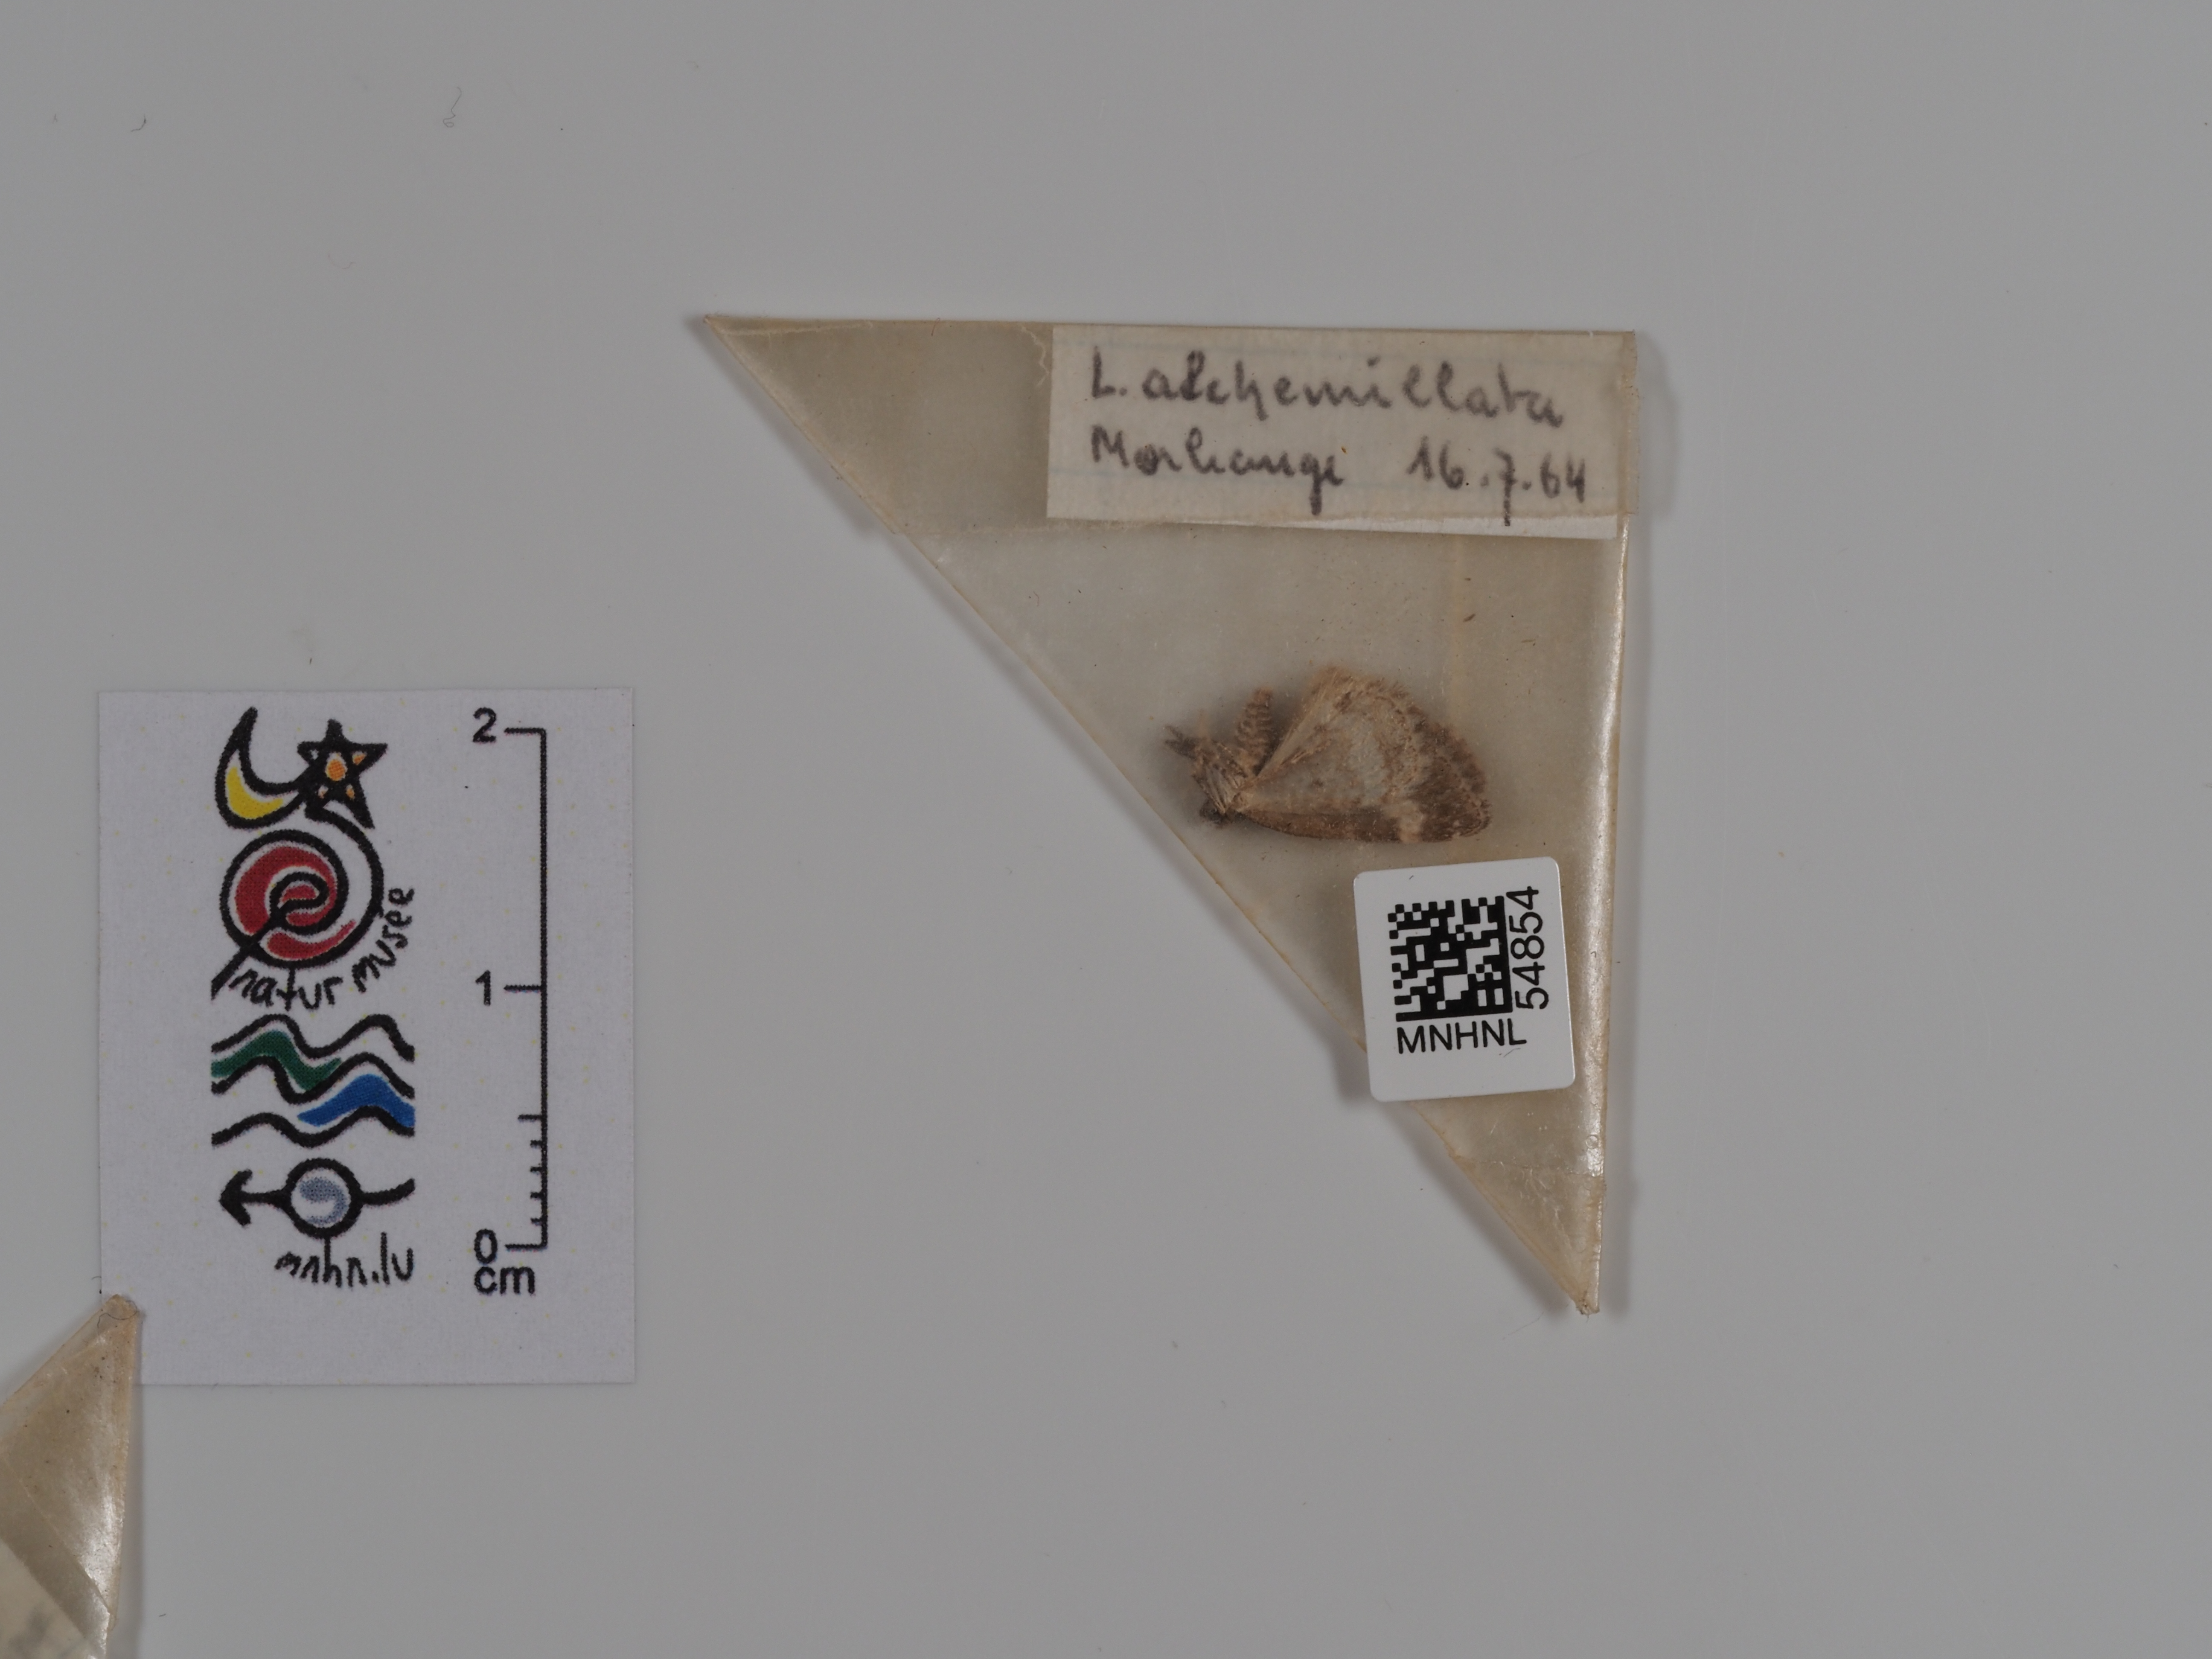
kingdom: Animalia
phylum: Arthropoda
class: Insecta
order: Lepidoptera
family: Geometridae
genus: Perizoma
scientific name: Perizoma alchemillata
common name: Small rivulet
